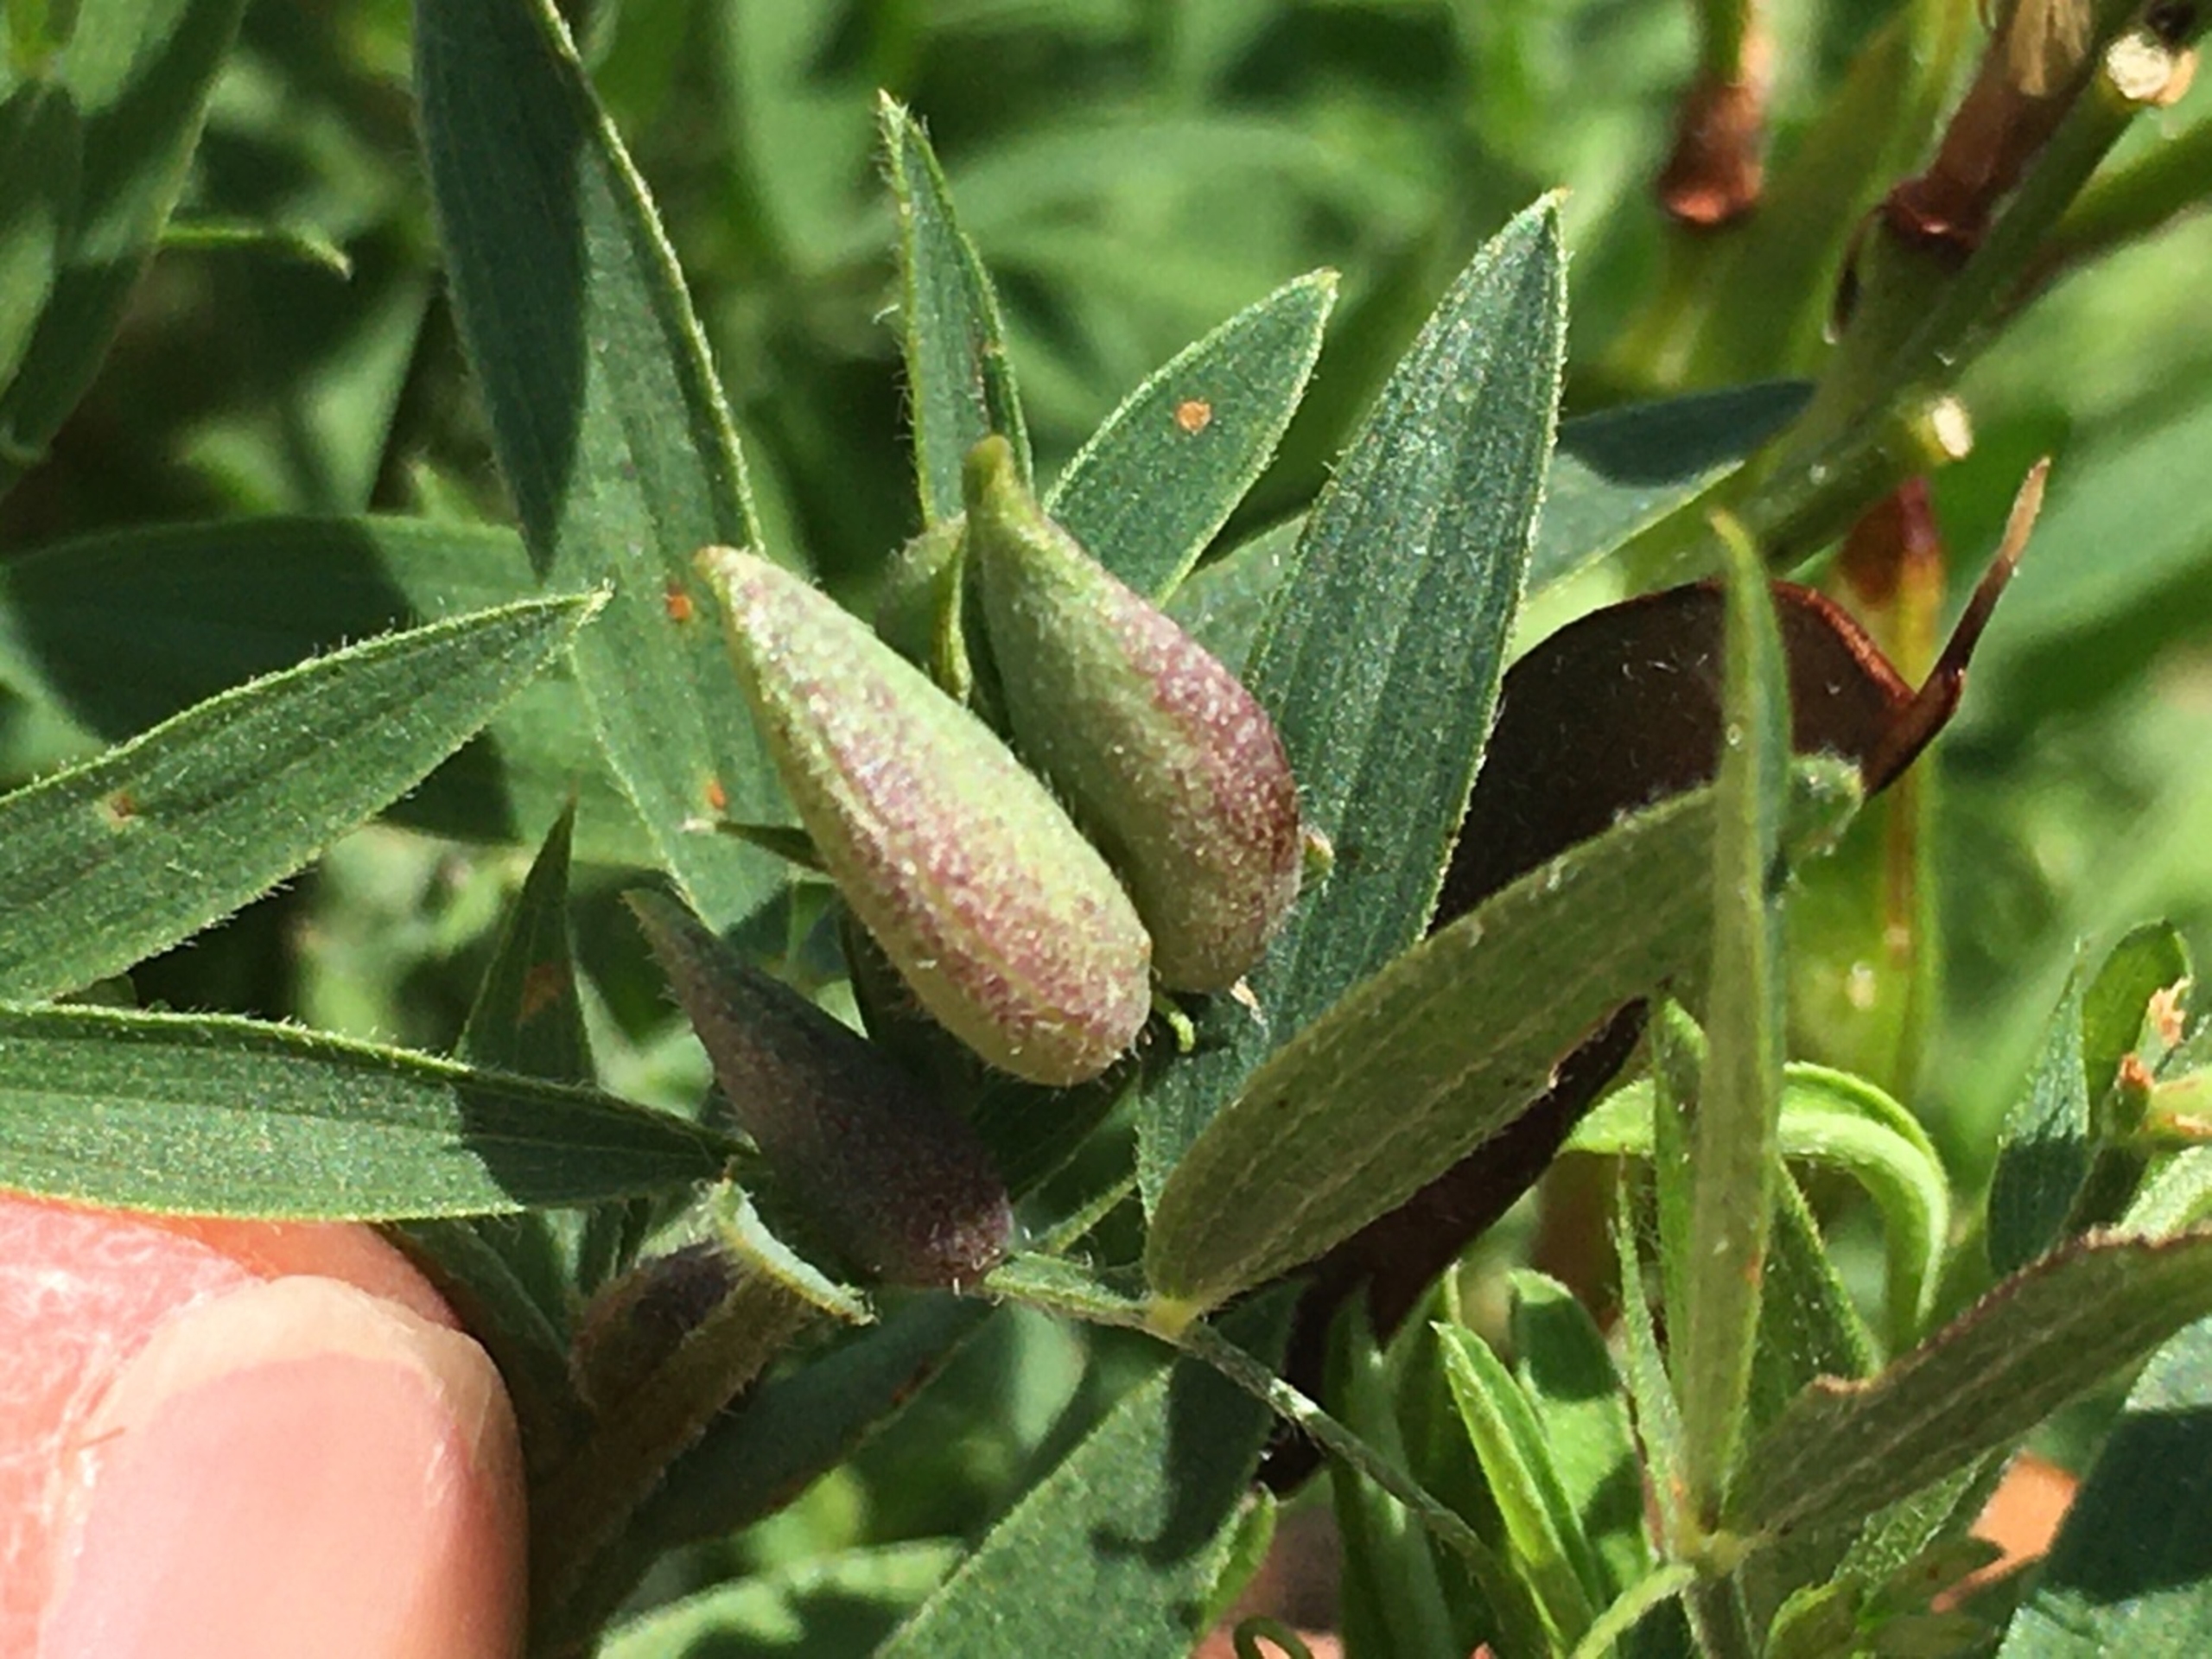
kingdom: Animalia
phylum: Arthropoda
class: Insecta
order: Diptera
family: Cecidomyiidae
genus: Dasineura
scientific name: Dasineura lathyri
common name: Fladbælgbladgalmyg
